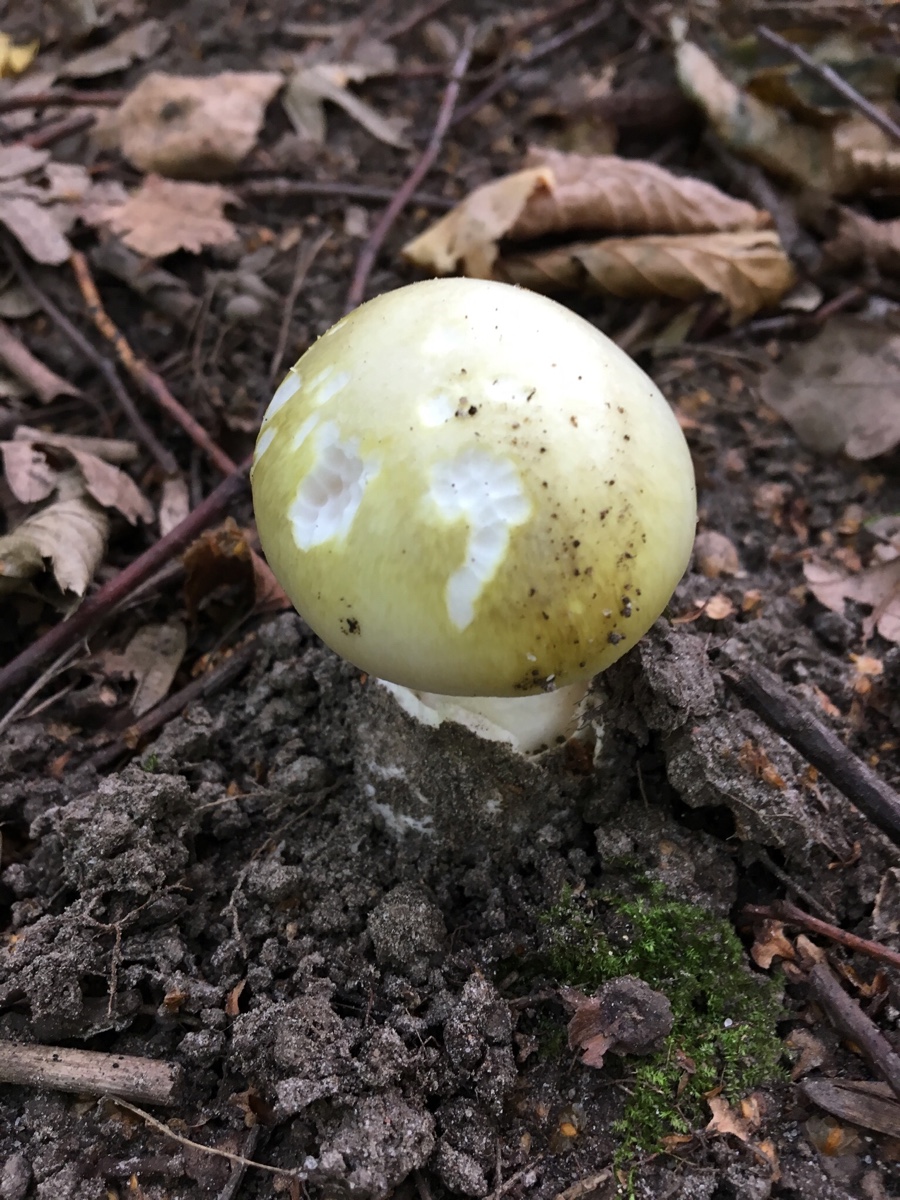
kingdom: Fungi
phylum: Basidiomycota
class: Agaricomycetes
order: Agaricales
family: Amanitaceae
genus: Amanita
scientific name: Amanita phalloides
